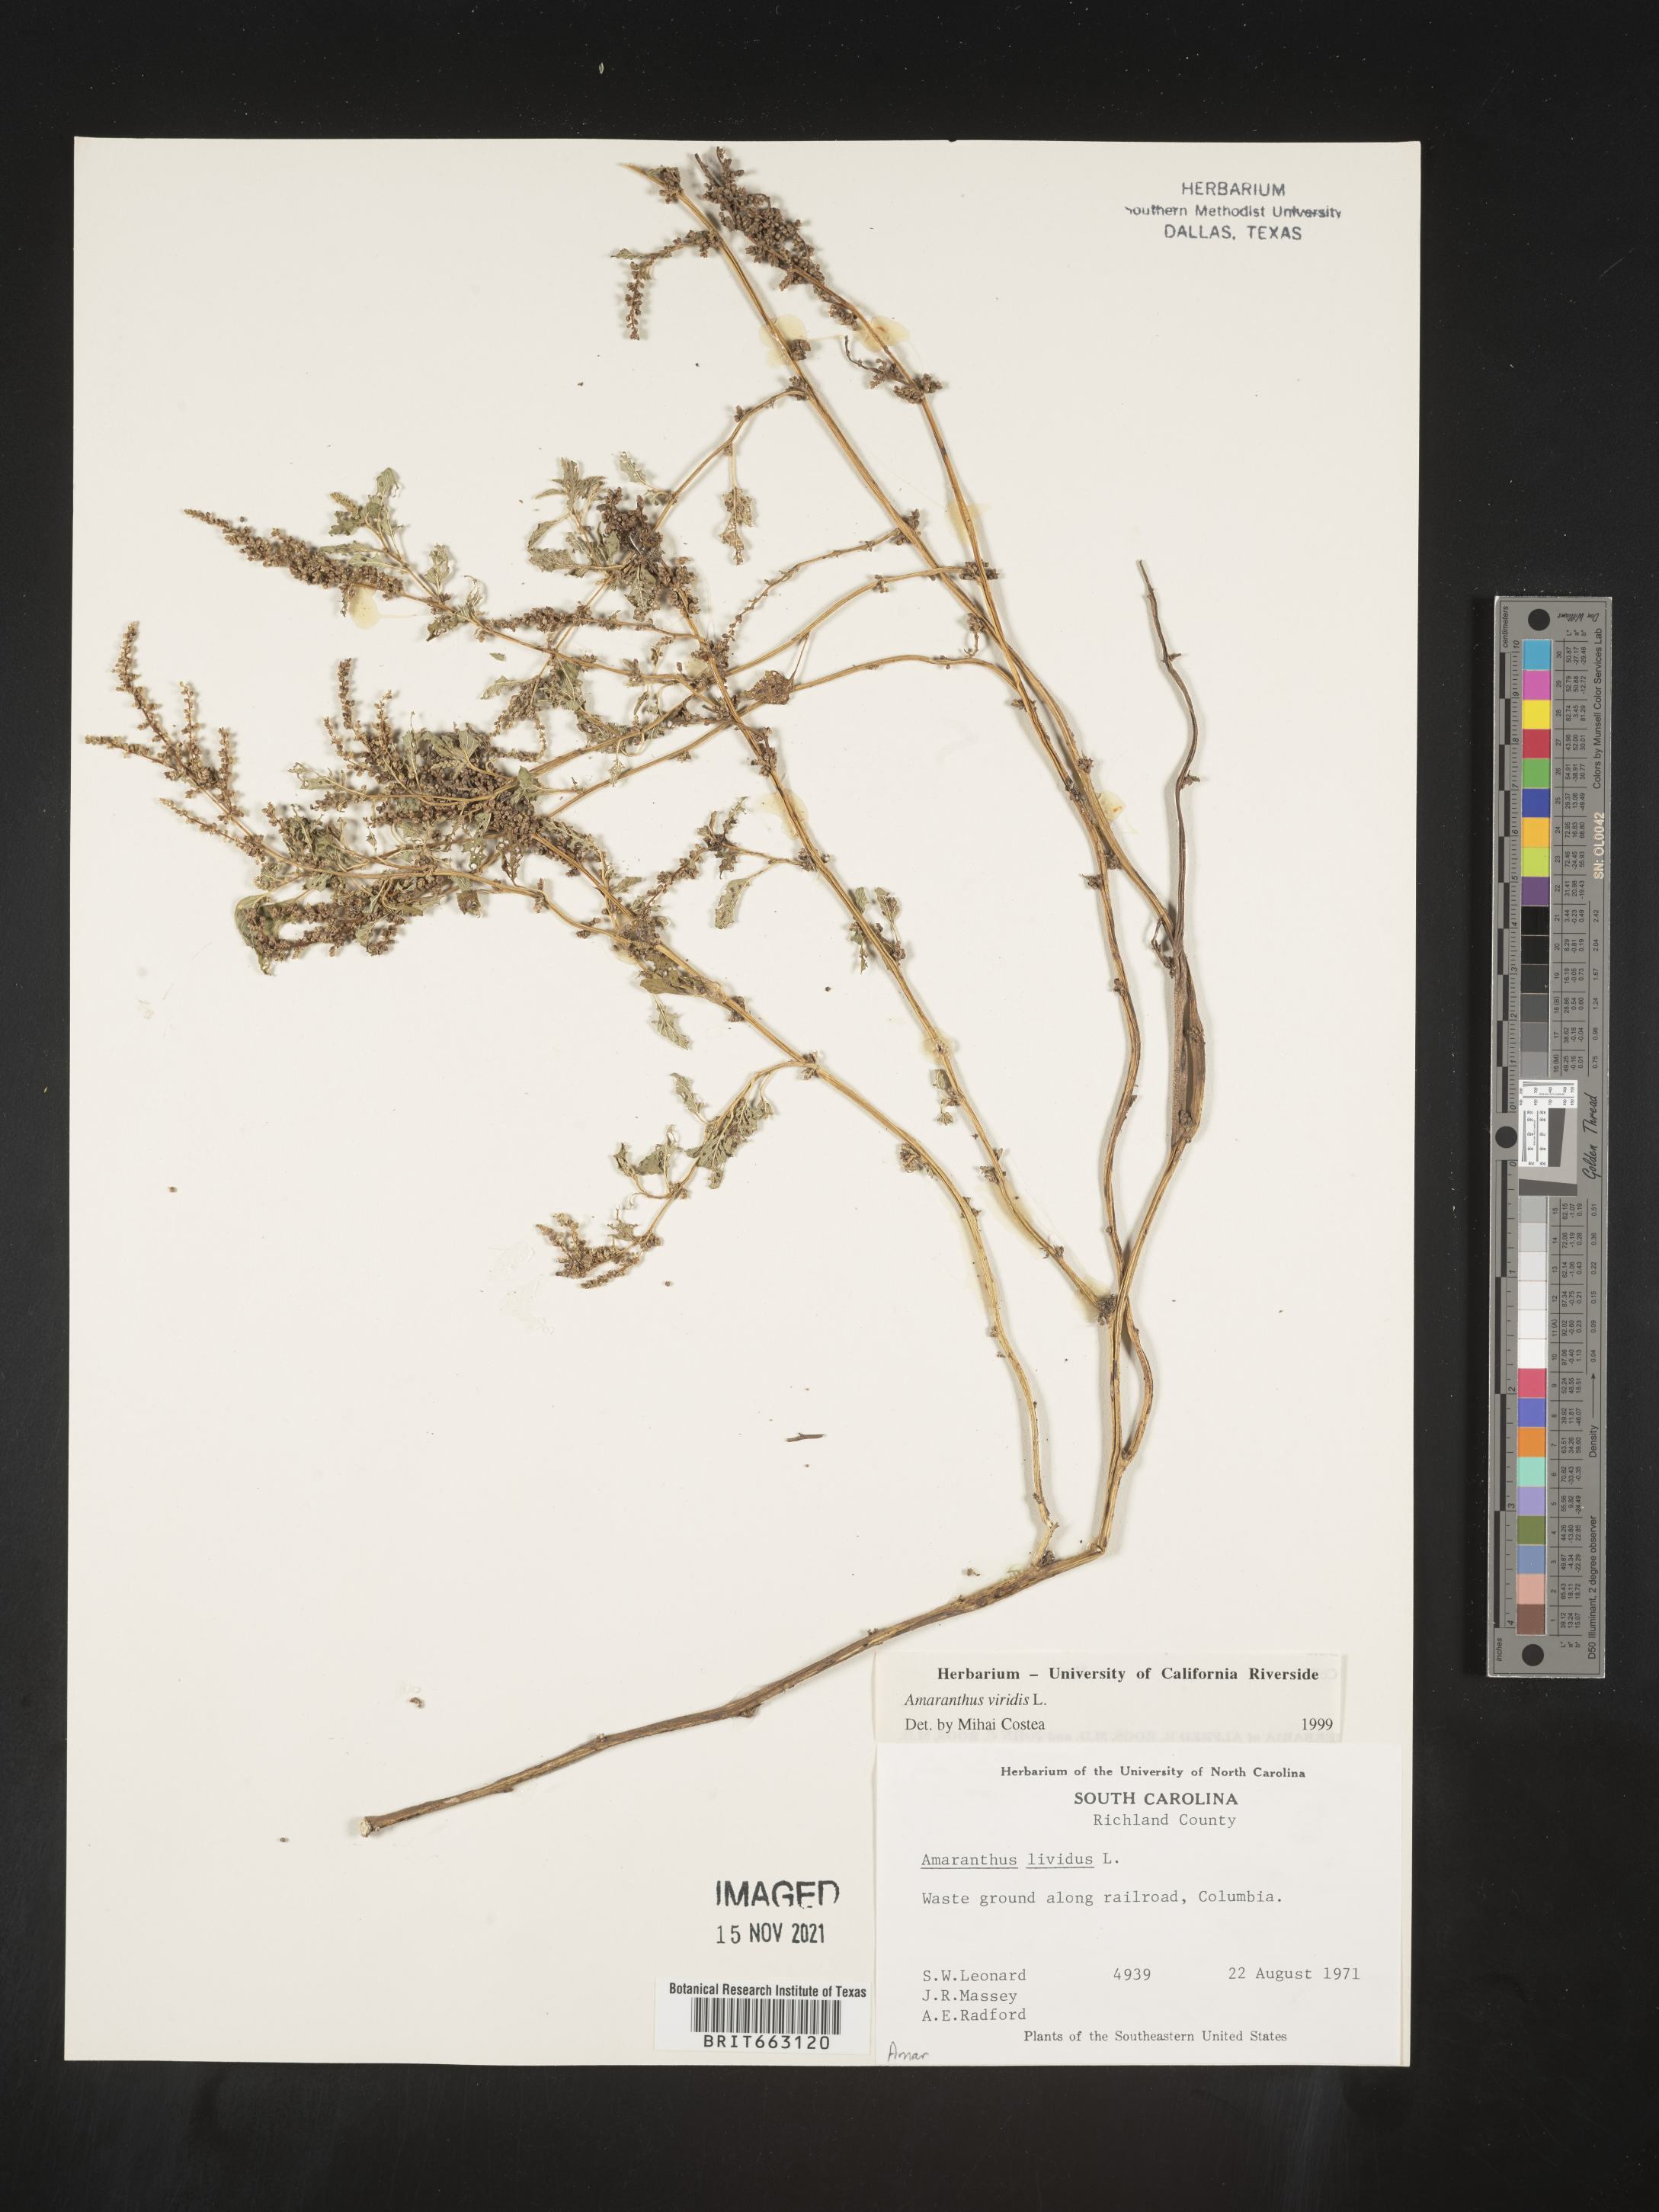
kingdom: Plantae
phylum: Tracheophyta
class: Magnoliopsida
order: Caryophyllales
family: Amaranthaceae
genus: Amaranthus
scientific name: Amaranthus viridis
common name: Slender amaranth
